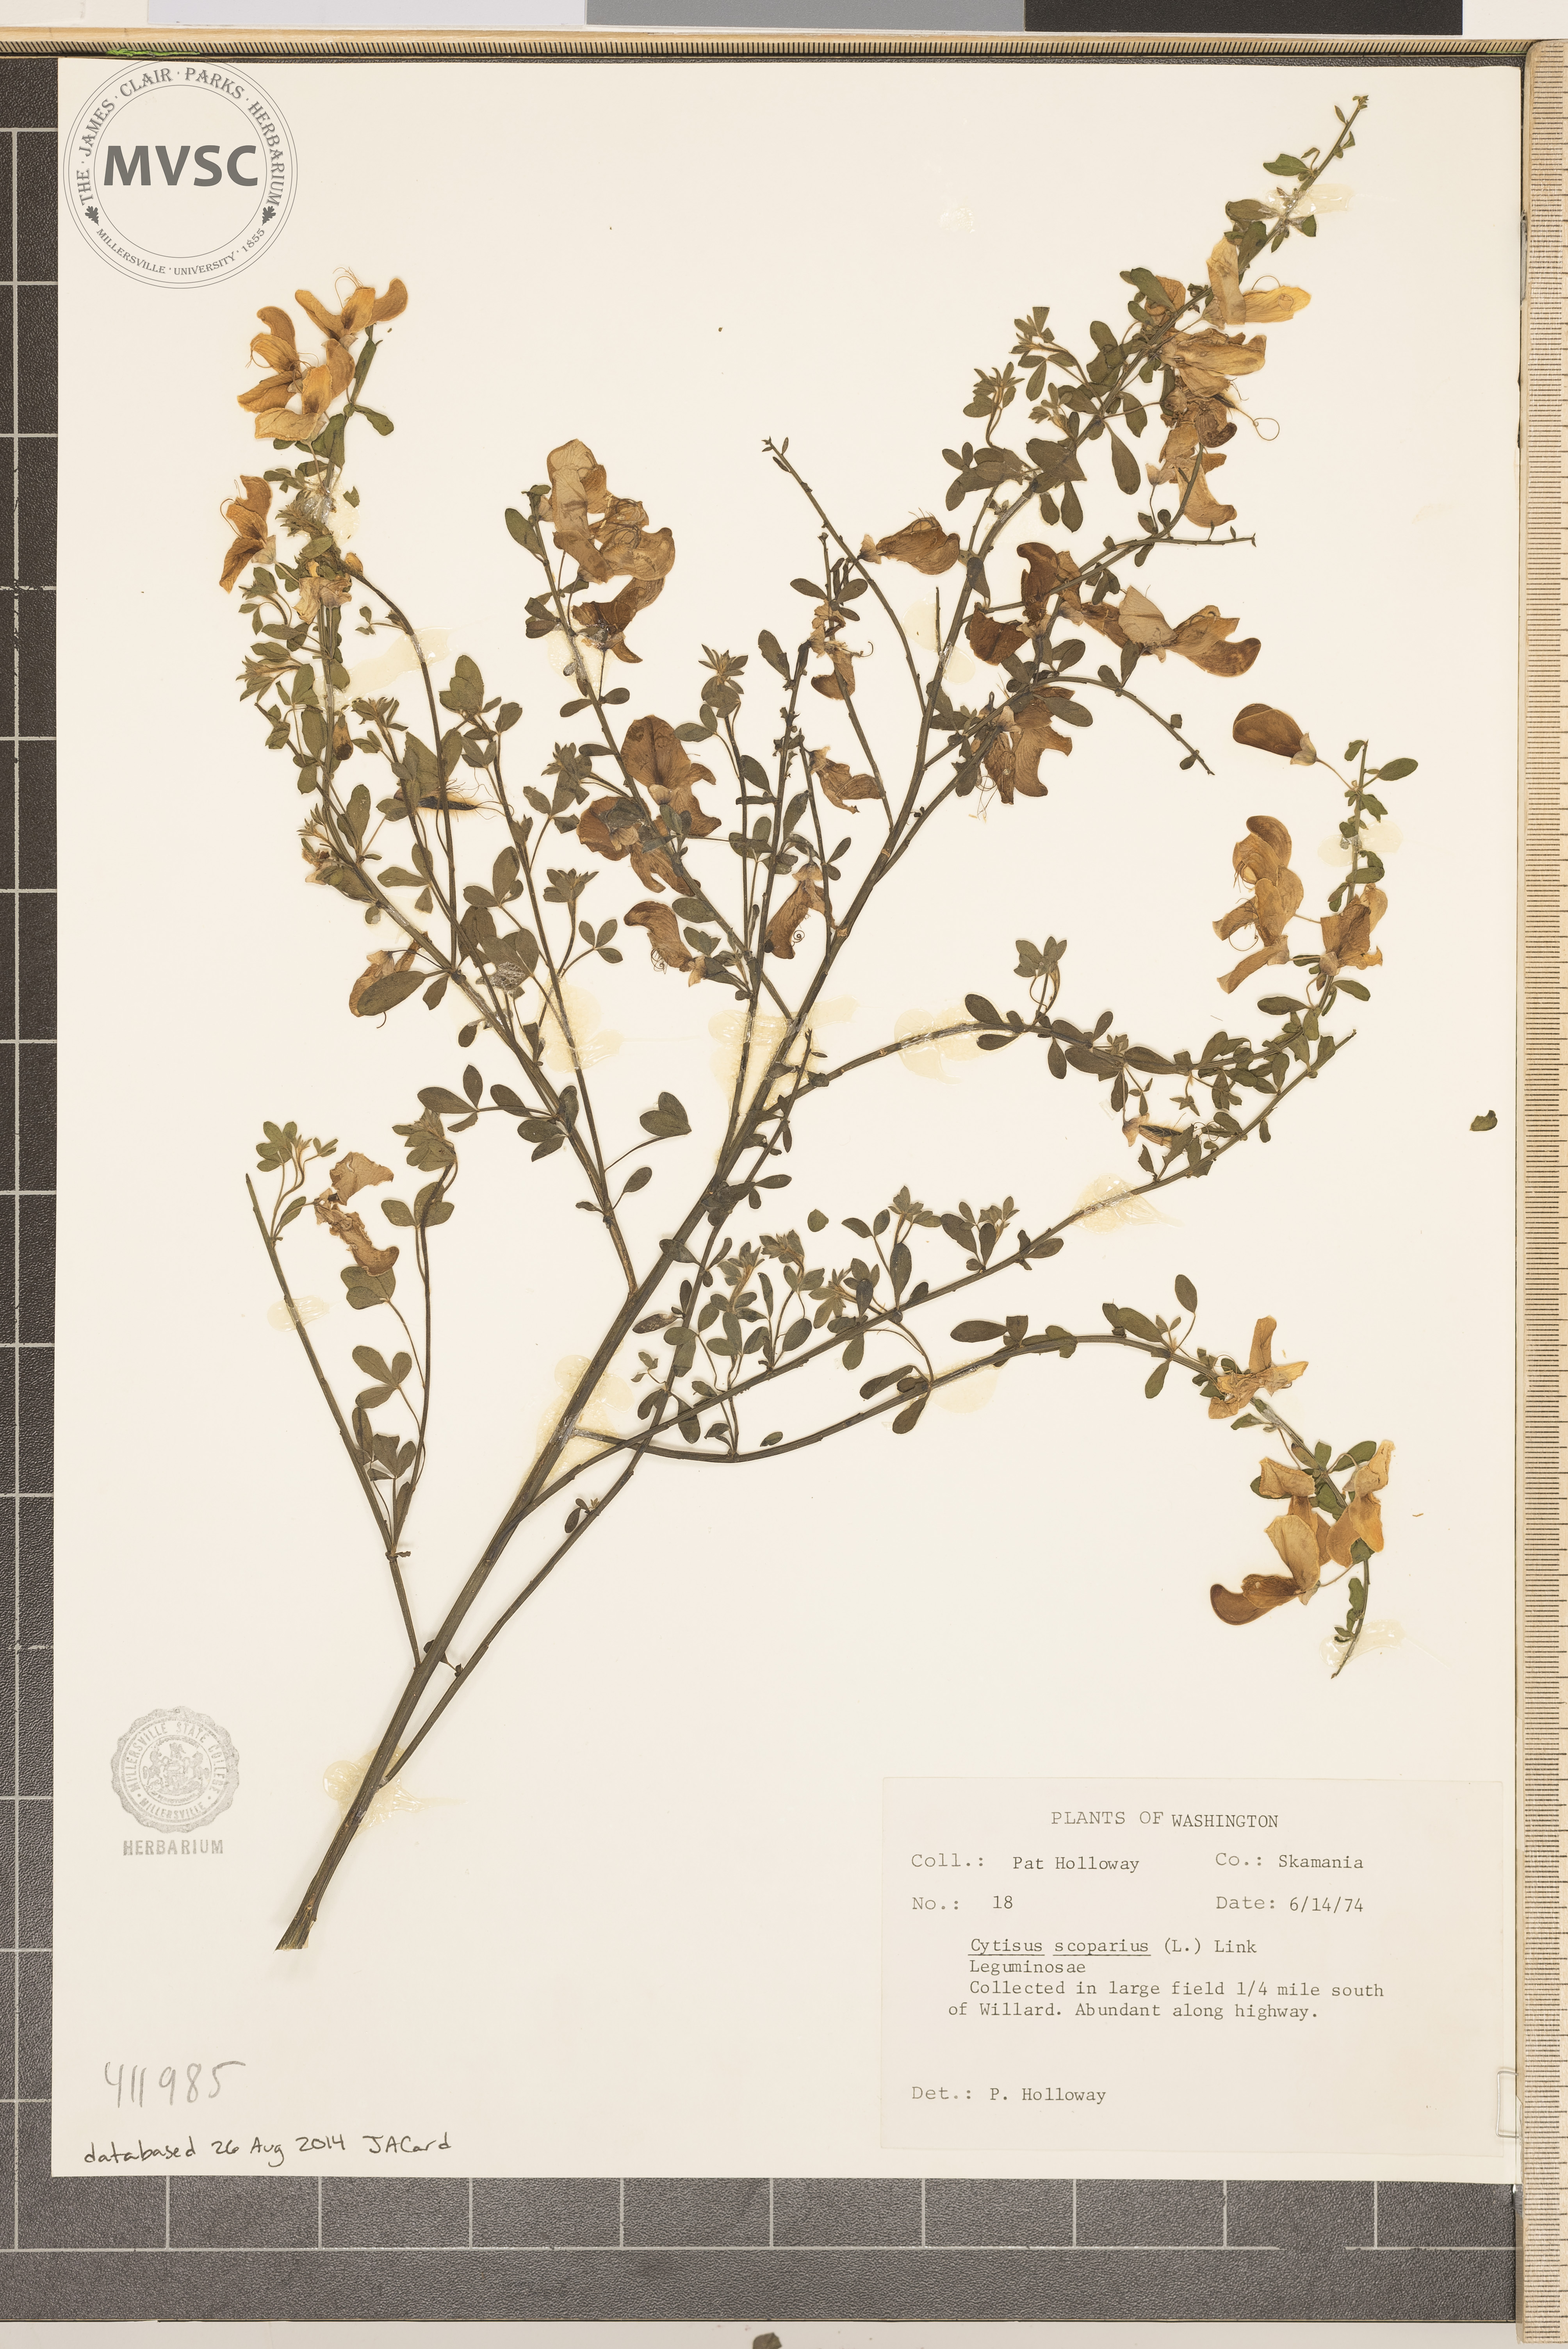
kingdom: Plantae
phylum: Tracheophyta
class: Magnoliopsida
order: Fabales
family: Fabaceae
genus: Cytisus
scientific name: Cytisus scoparius
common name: Scotch broom
